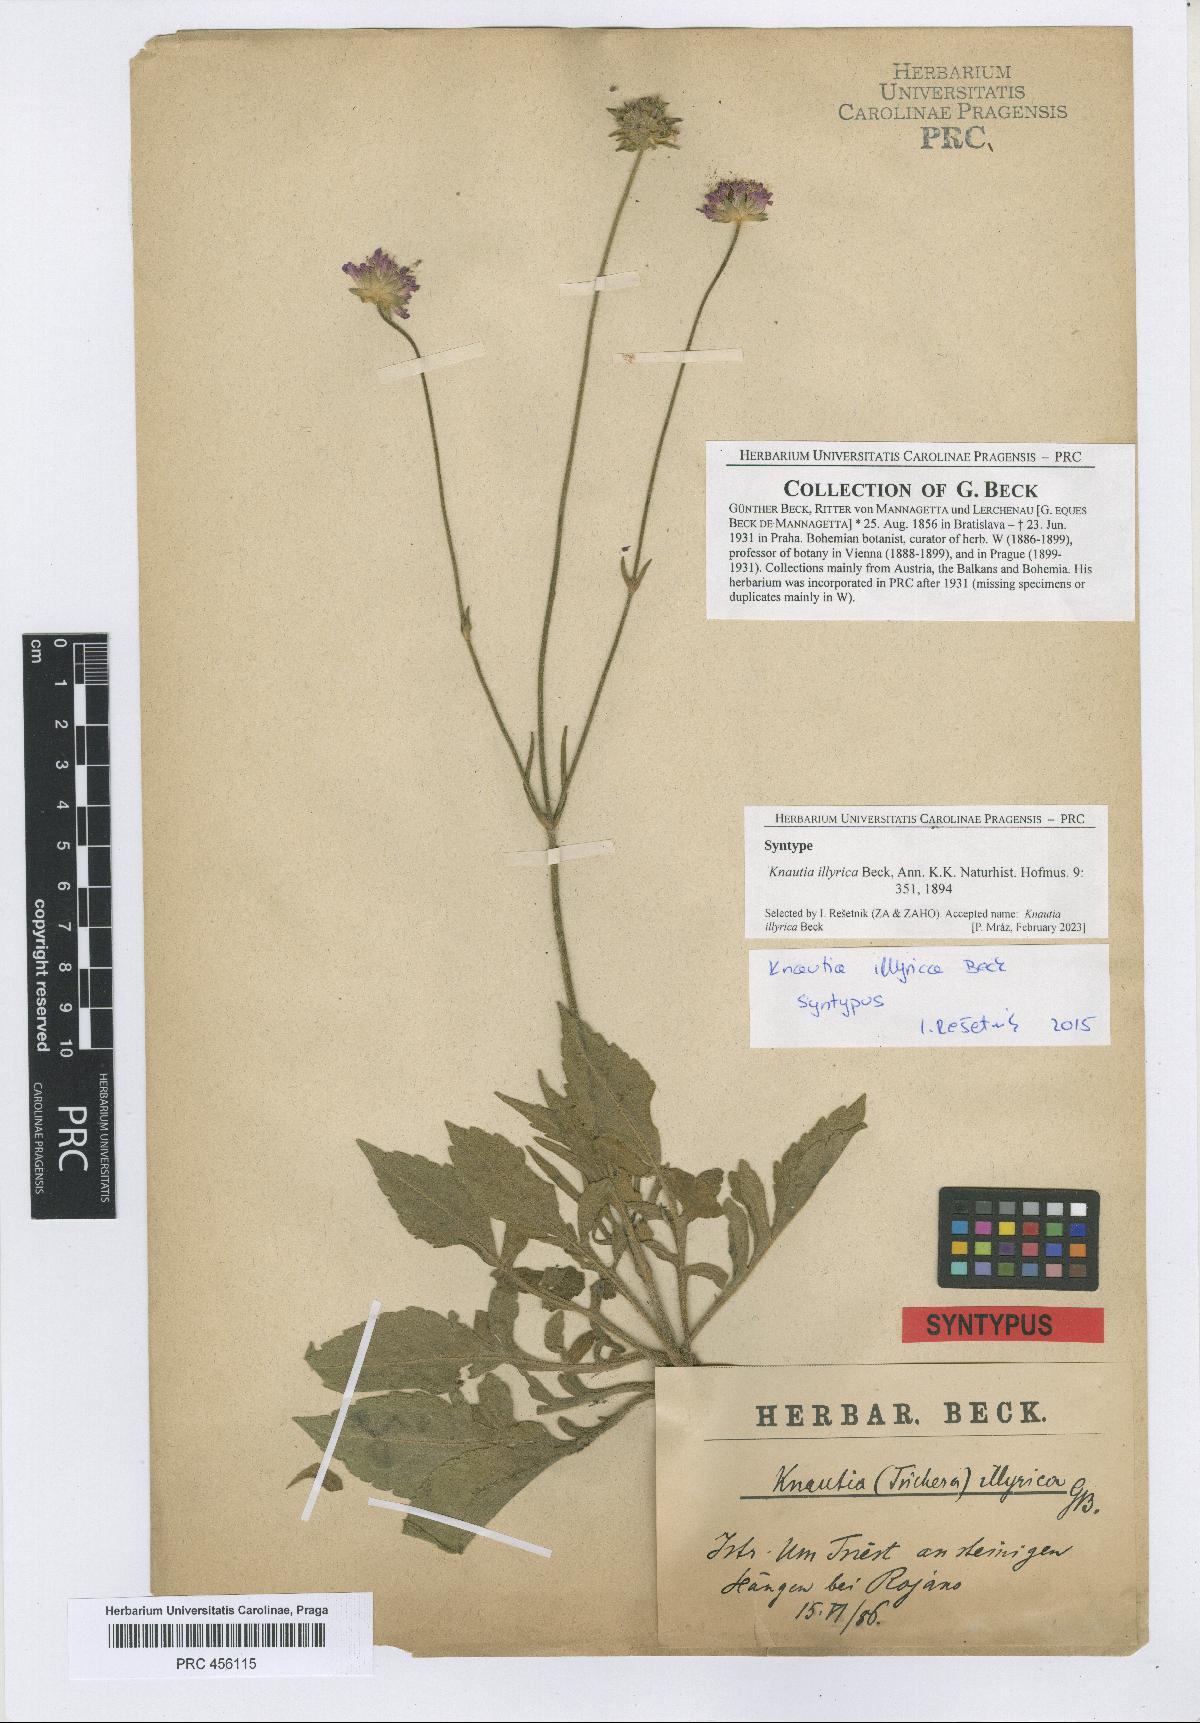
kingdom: Plantae
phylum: Tracheophyta
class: Magnoliopsida
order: Dipsacales
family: Caprifoliaceae
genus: Knautia
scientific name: Knautia illyrica
